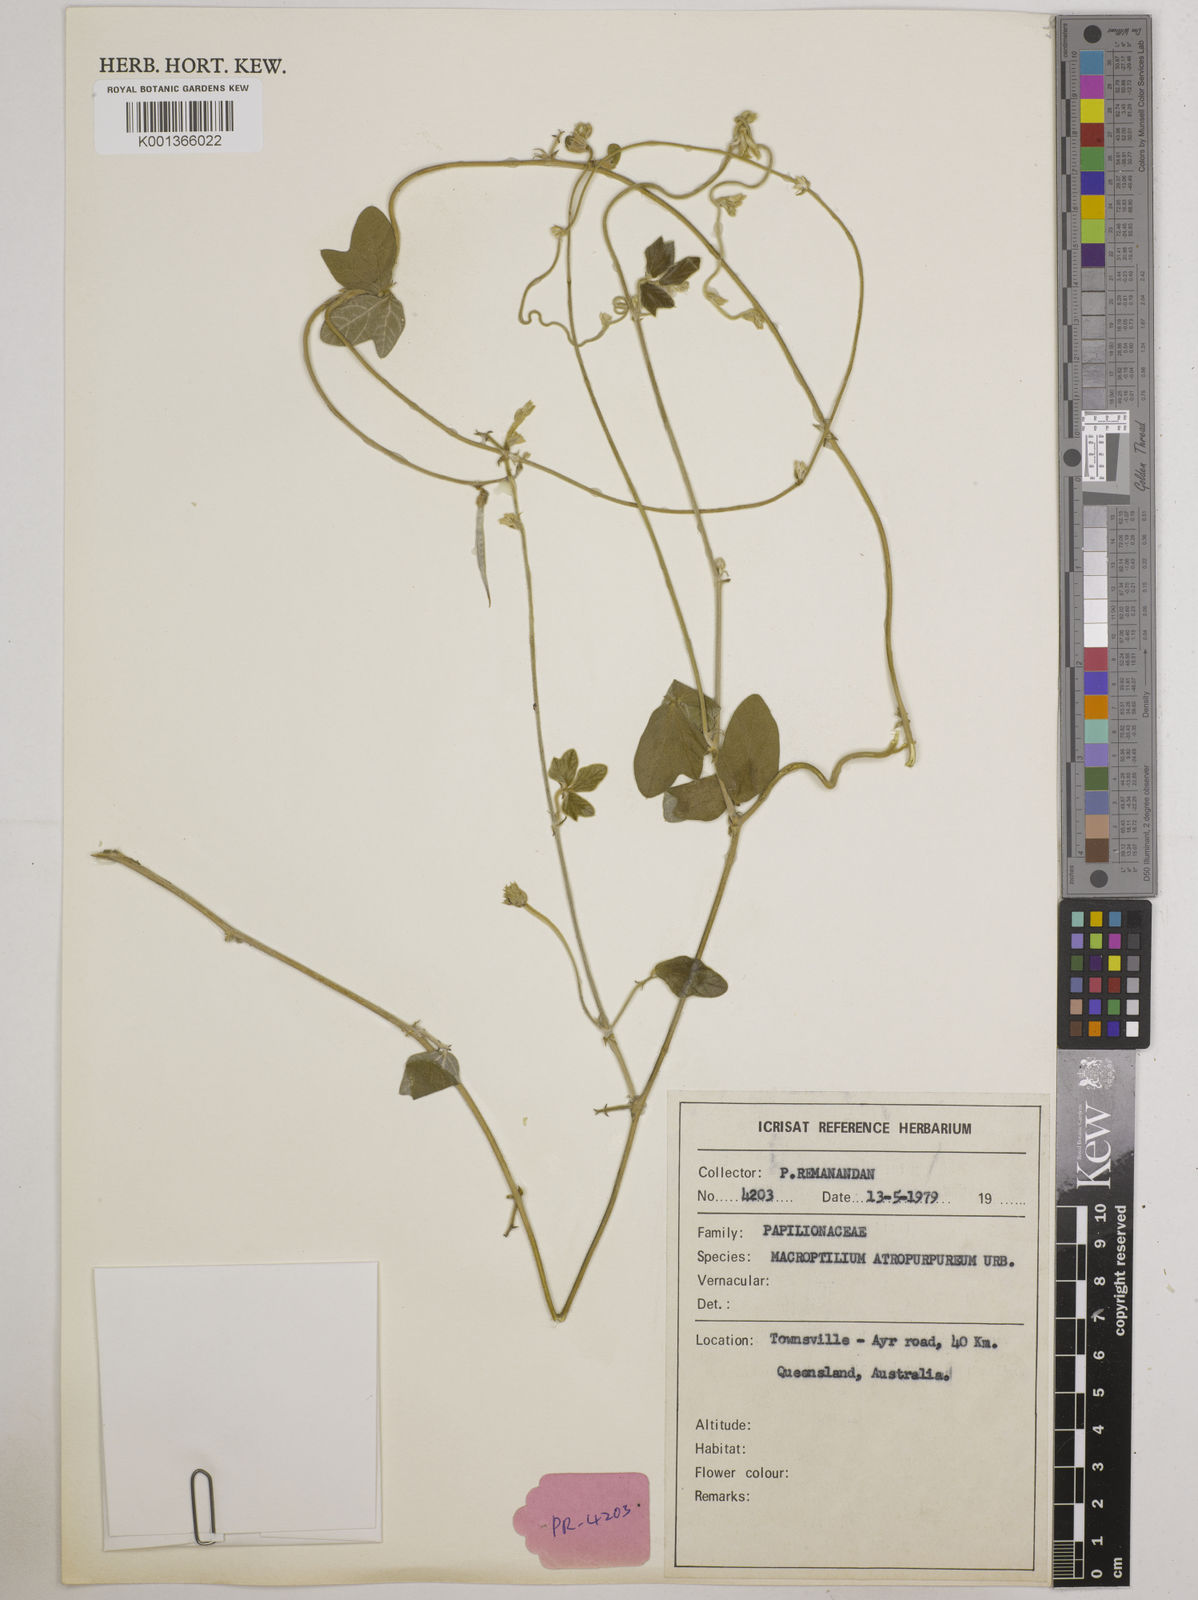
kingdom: Plantae
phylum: Tracheophyta
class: Magnoliopsida
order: Fabales
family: Fabaceae
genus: Macroptilium
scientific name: Macroptilium atropurpureum
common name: Purple bushbean
